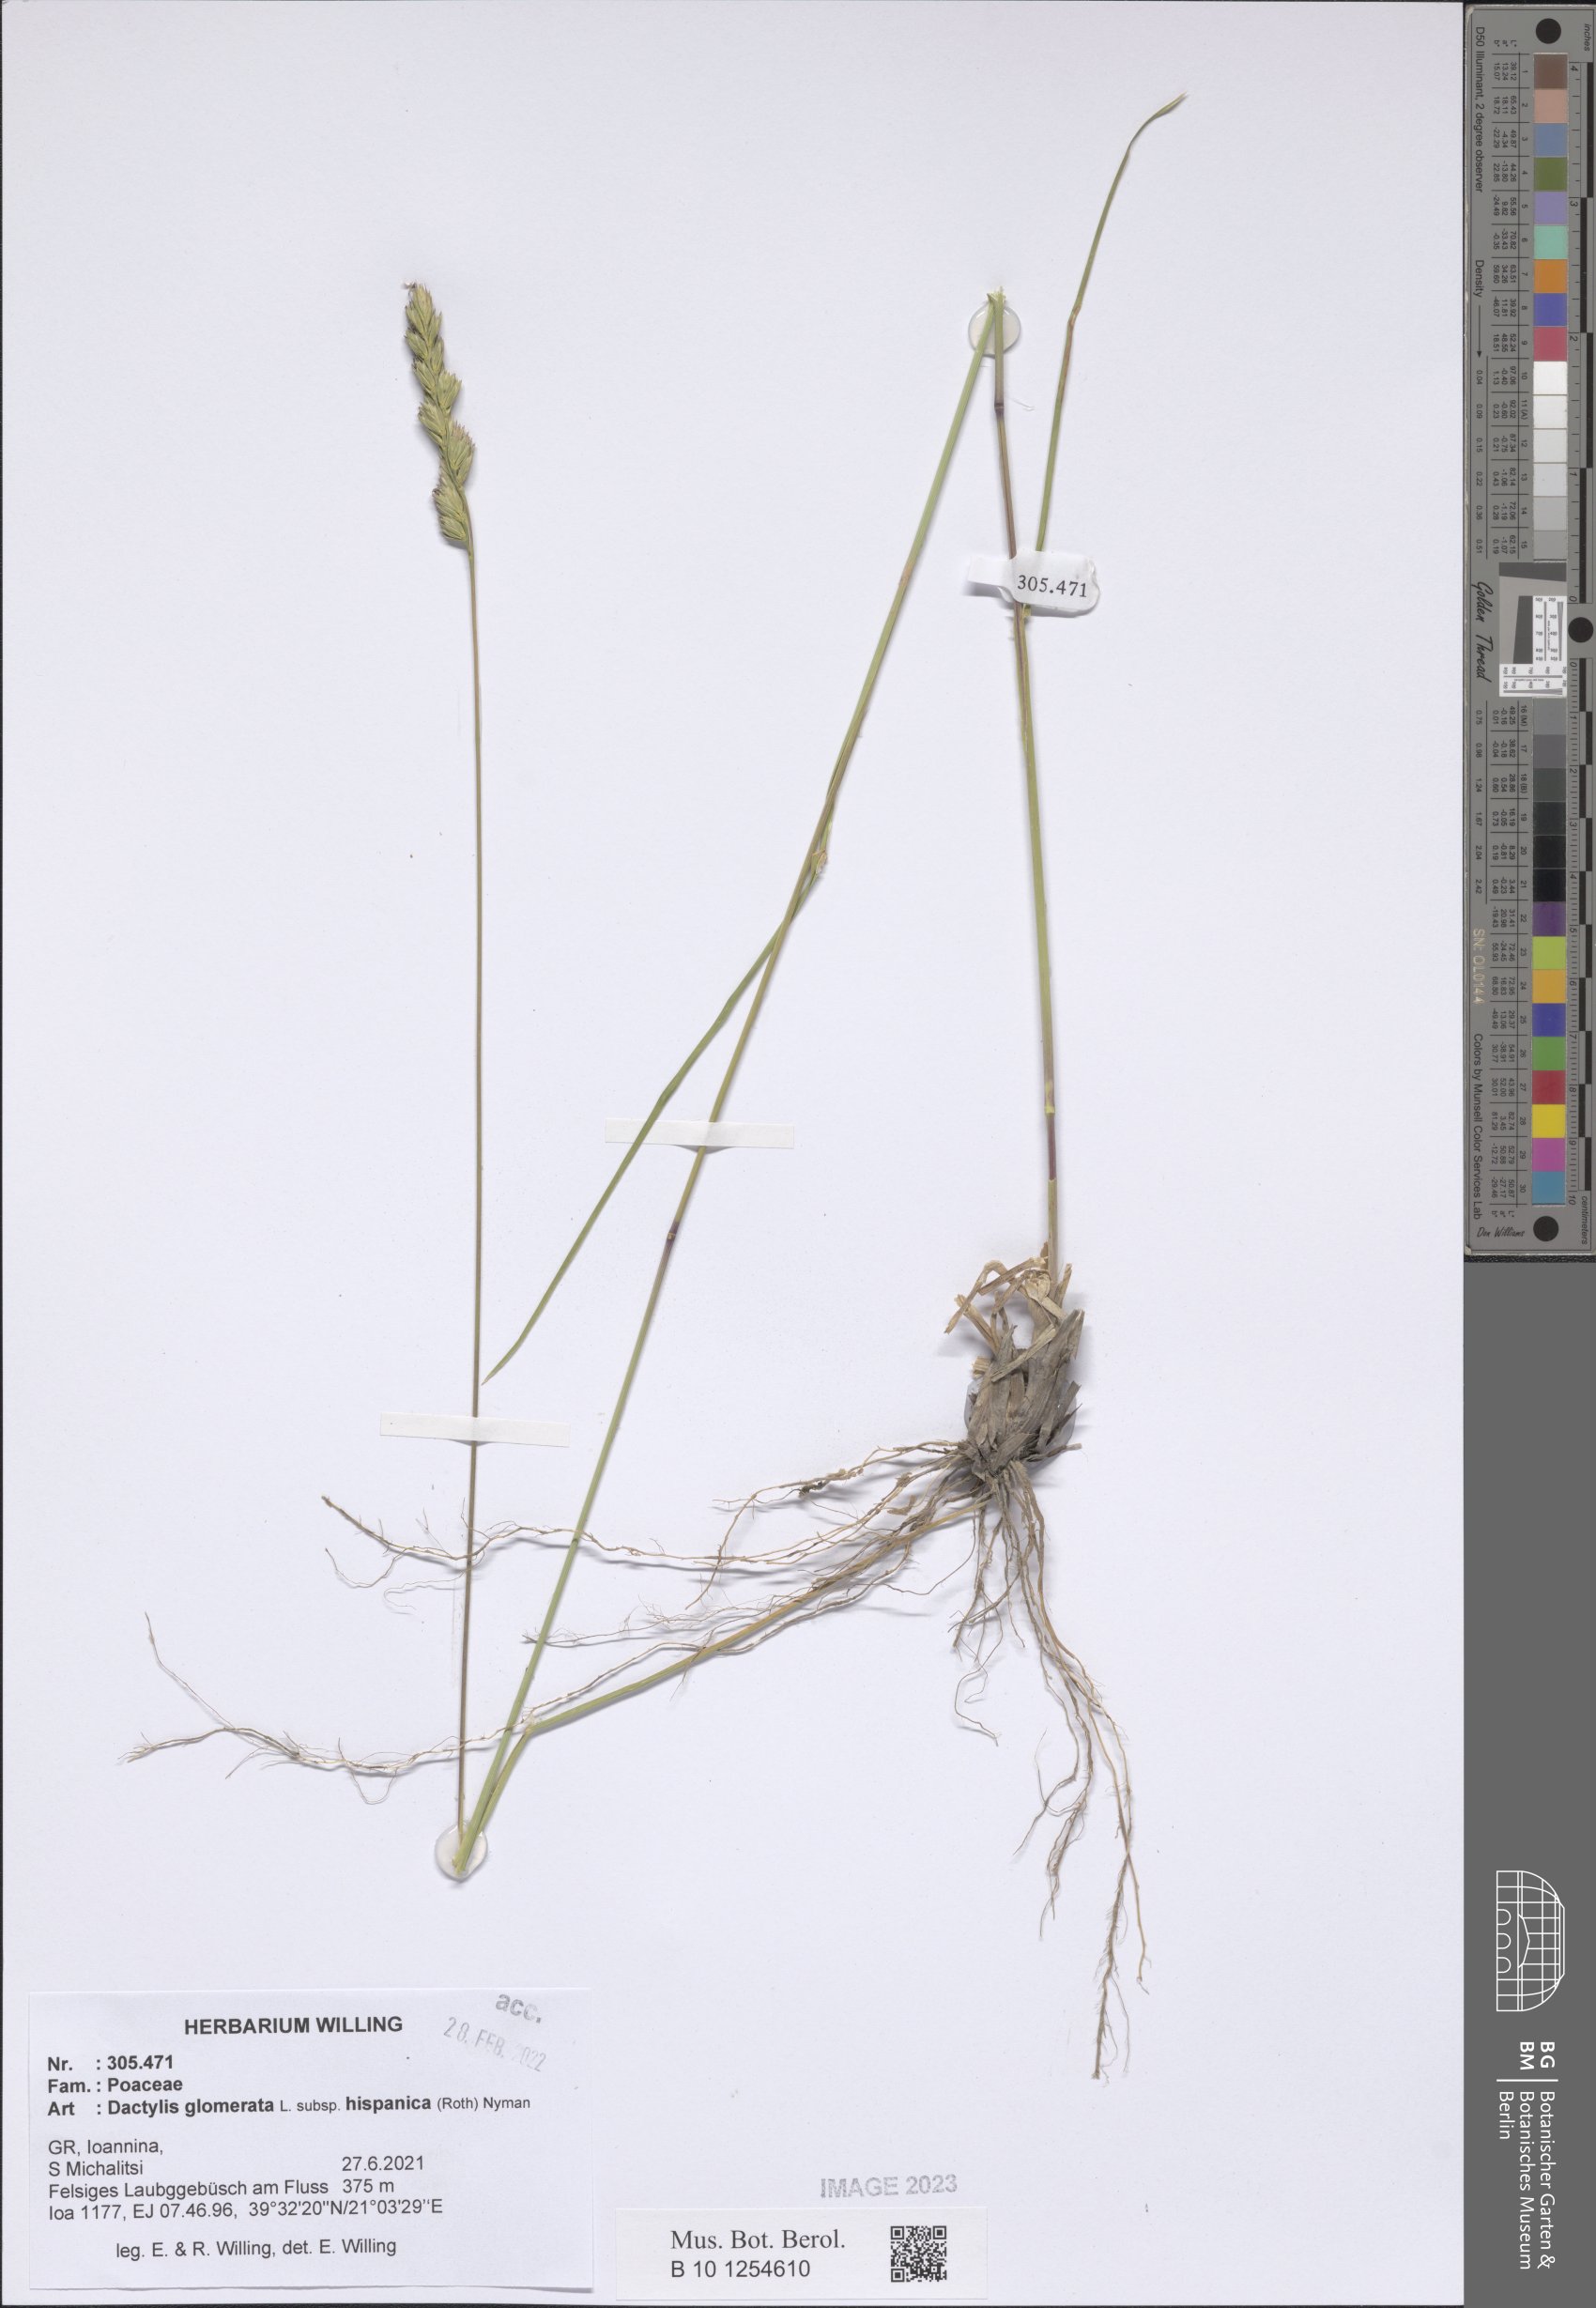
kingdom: Plantae
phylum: Tracheophyta
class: Liliopsida
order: Poales
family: Poaceae
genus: Dactylis
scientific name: Dactylis glomerata
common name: Orchardgrass
